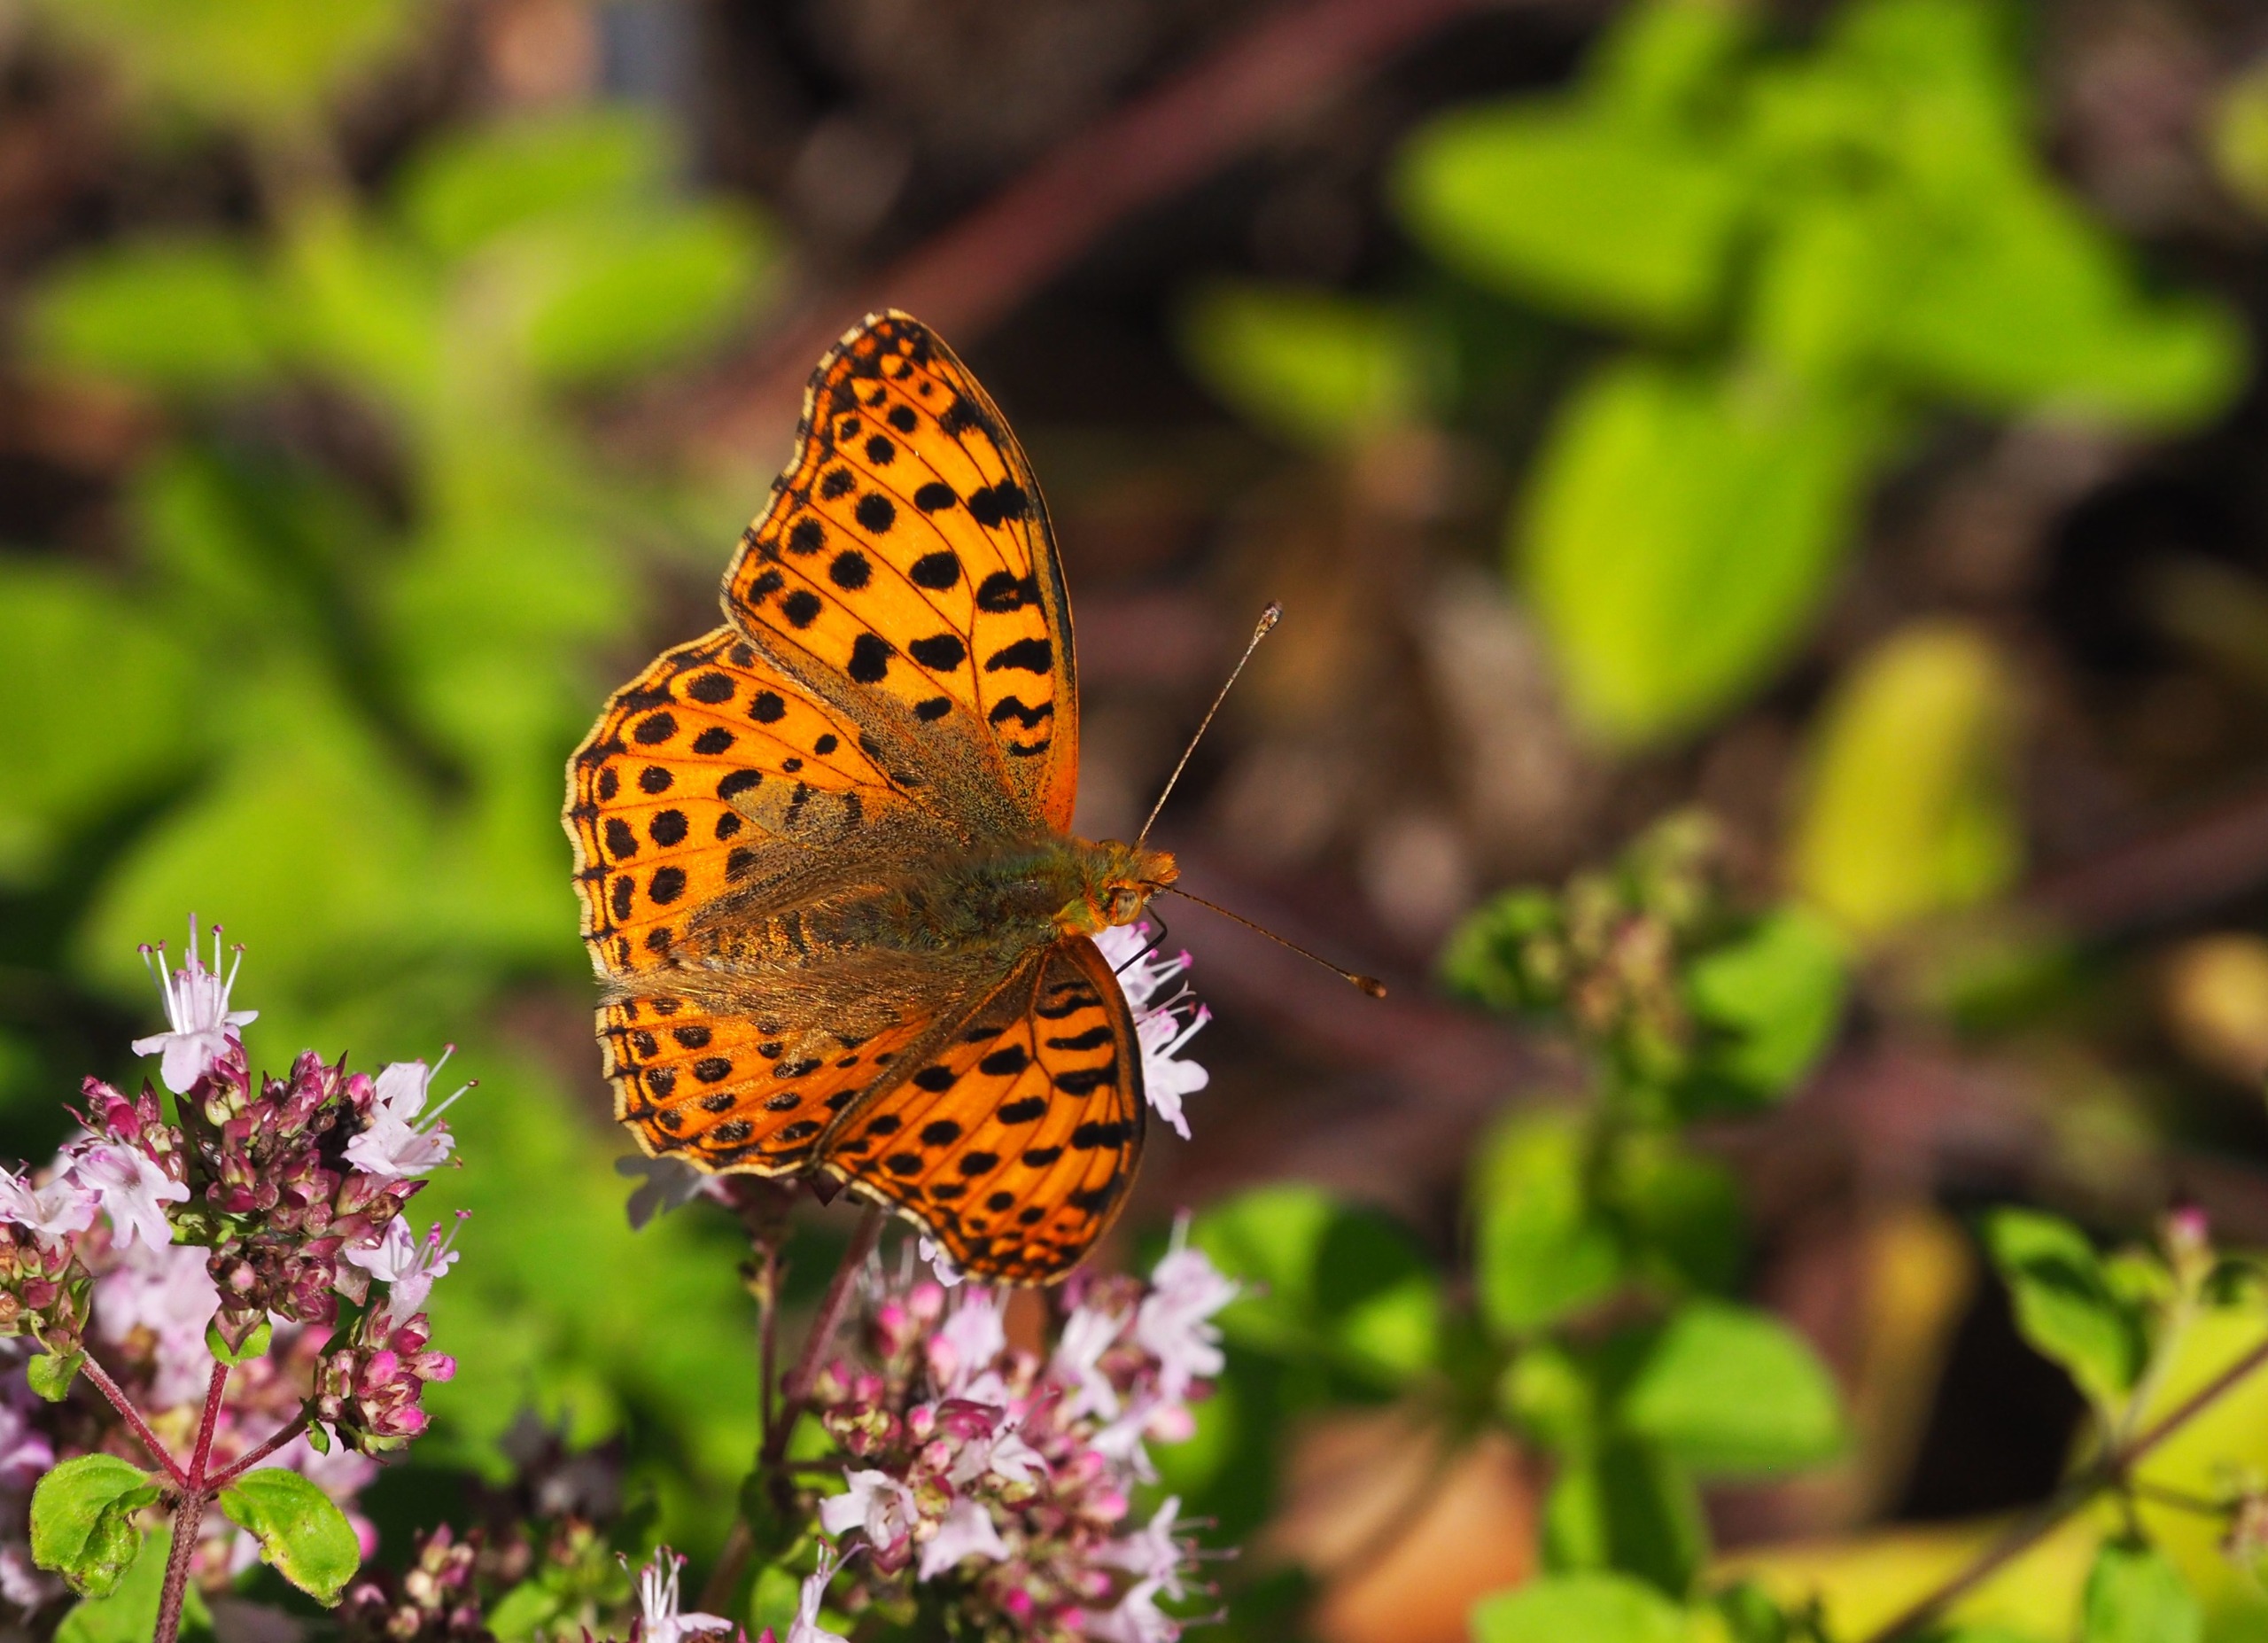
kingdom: Animalia
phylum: Arthropoda
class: Insecta
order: Lepidoptera
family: Nymphalidae
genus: Issoria
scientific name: Issoria lathonia
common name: Storplettet perlemorsommerfugl
